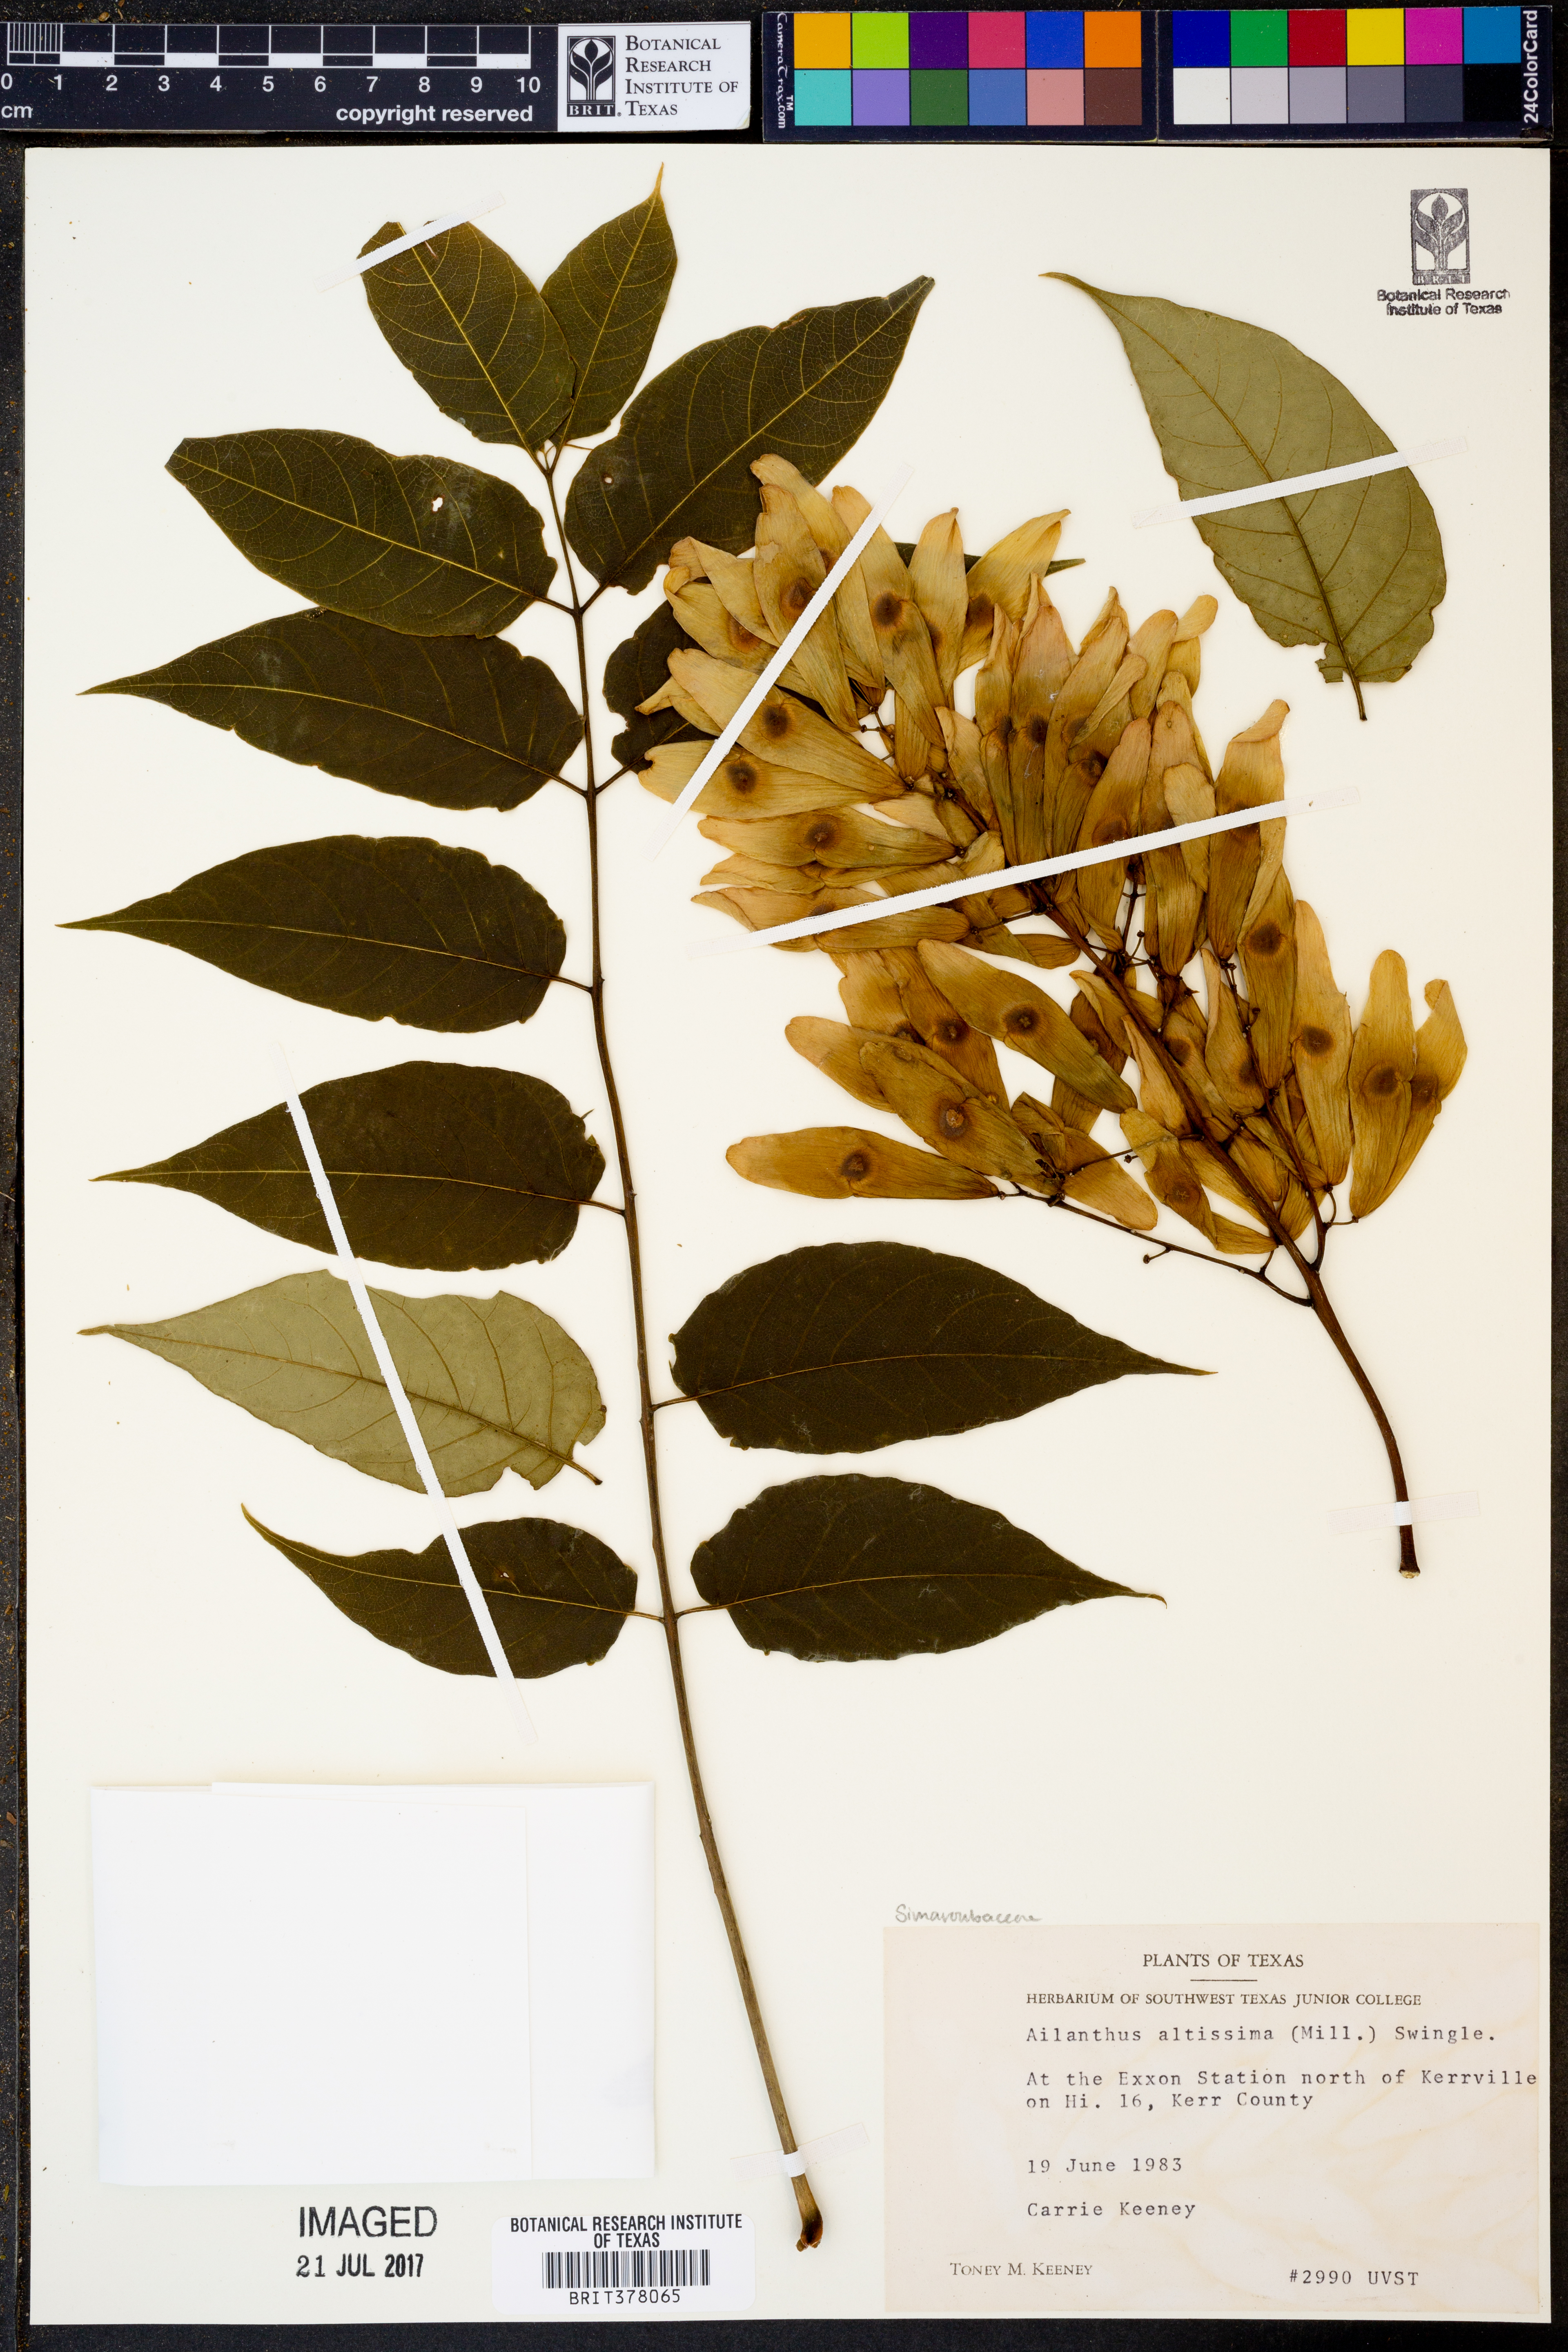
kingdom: Plantae
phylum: Tracheophyta
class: Magnoliopsida
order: Sapindales
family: Simaroubaceae
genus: Ailanthus
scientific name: Ailanthus altissima
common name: Tree-of-heaven
